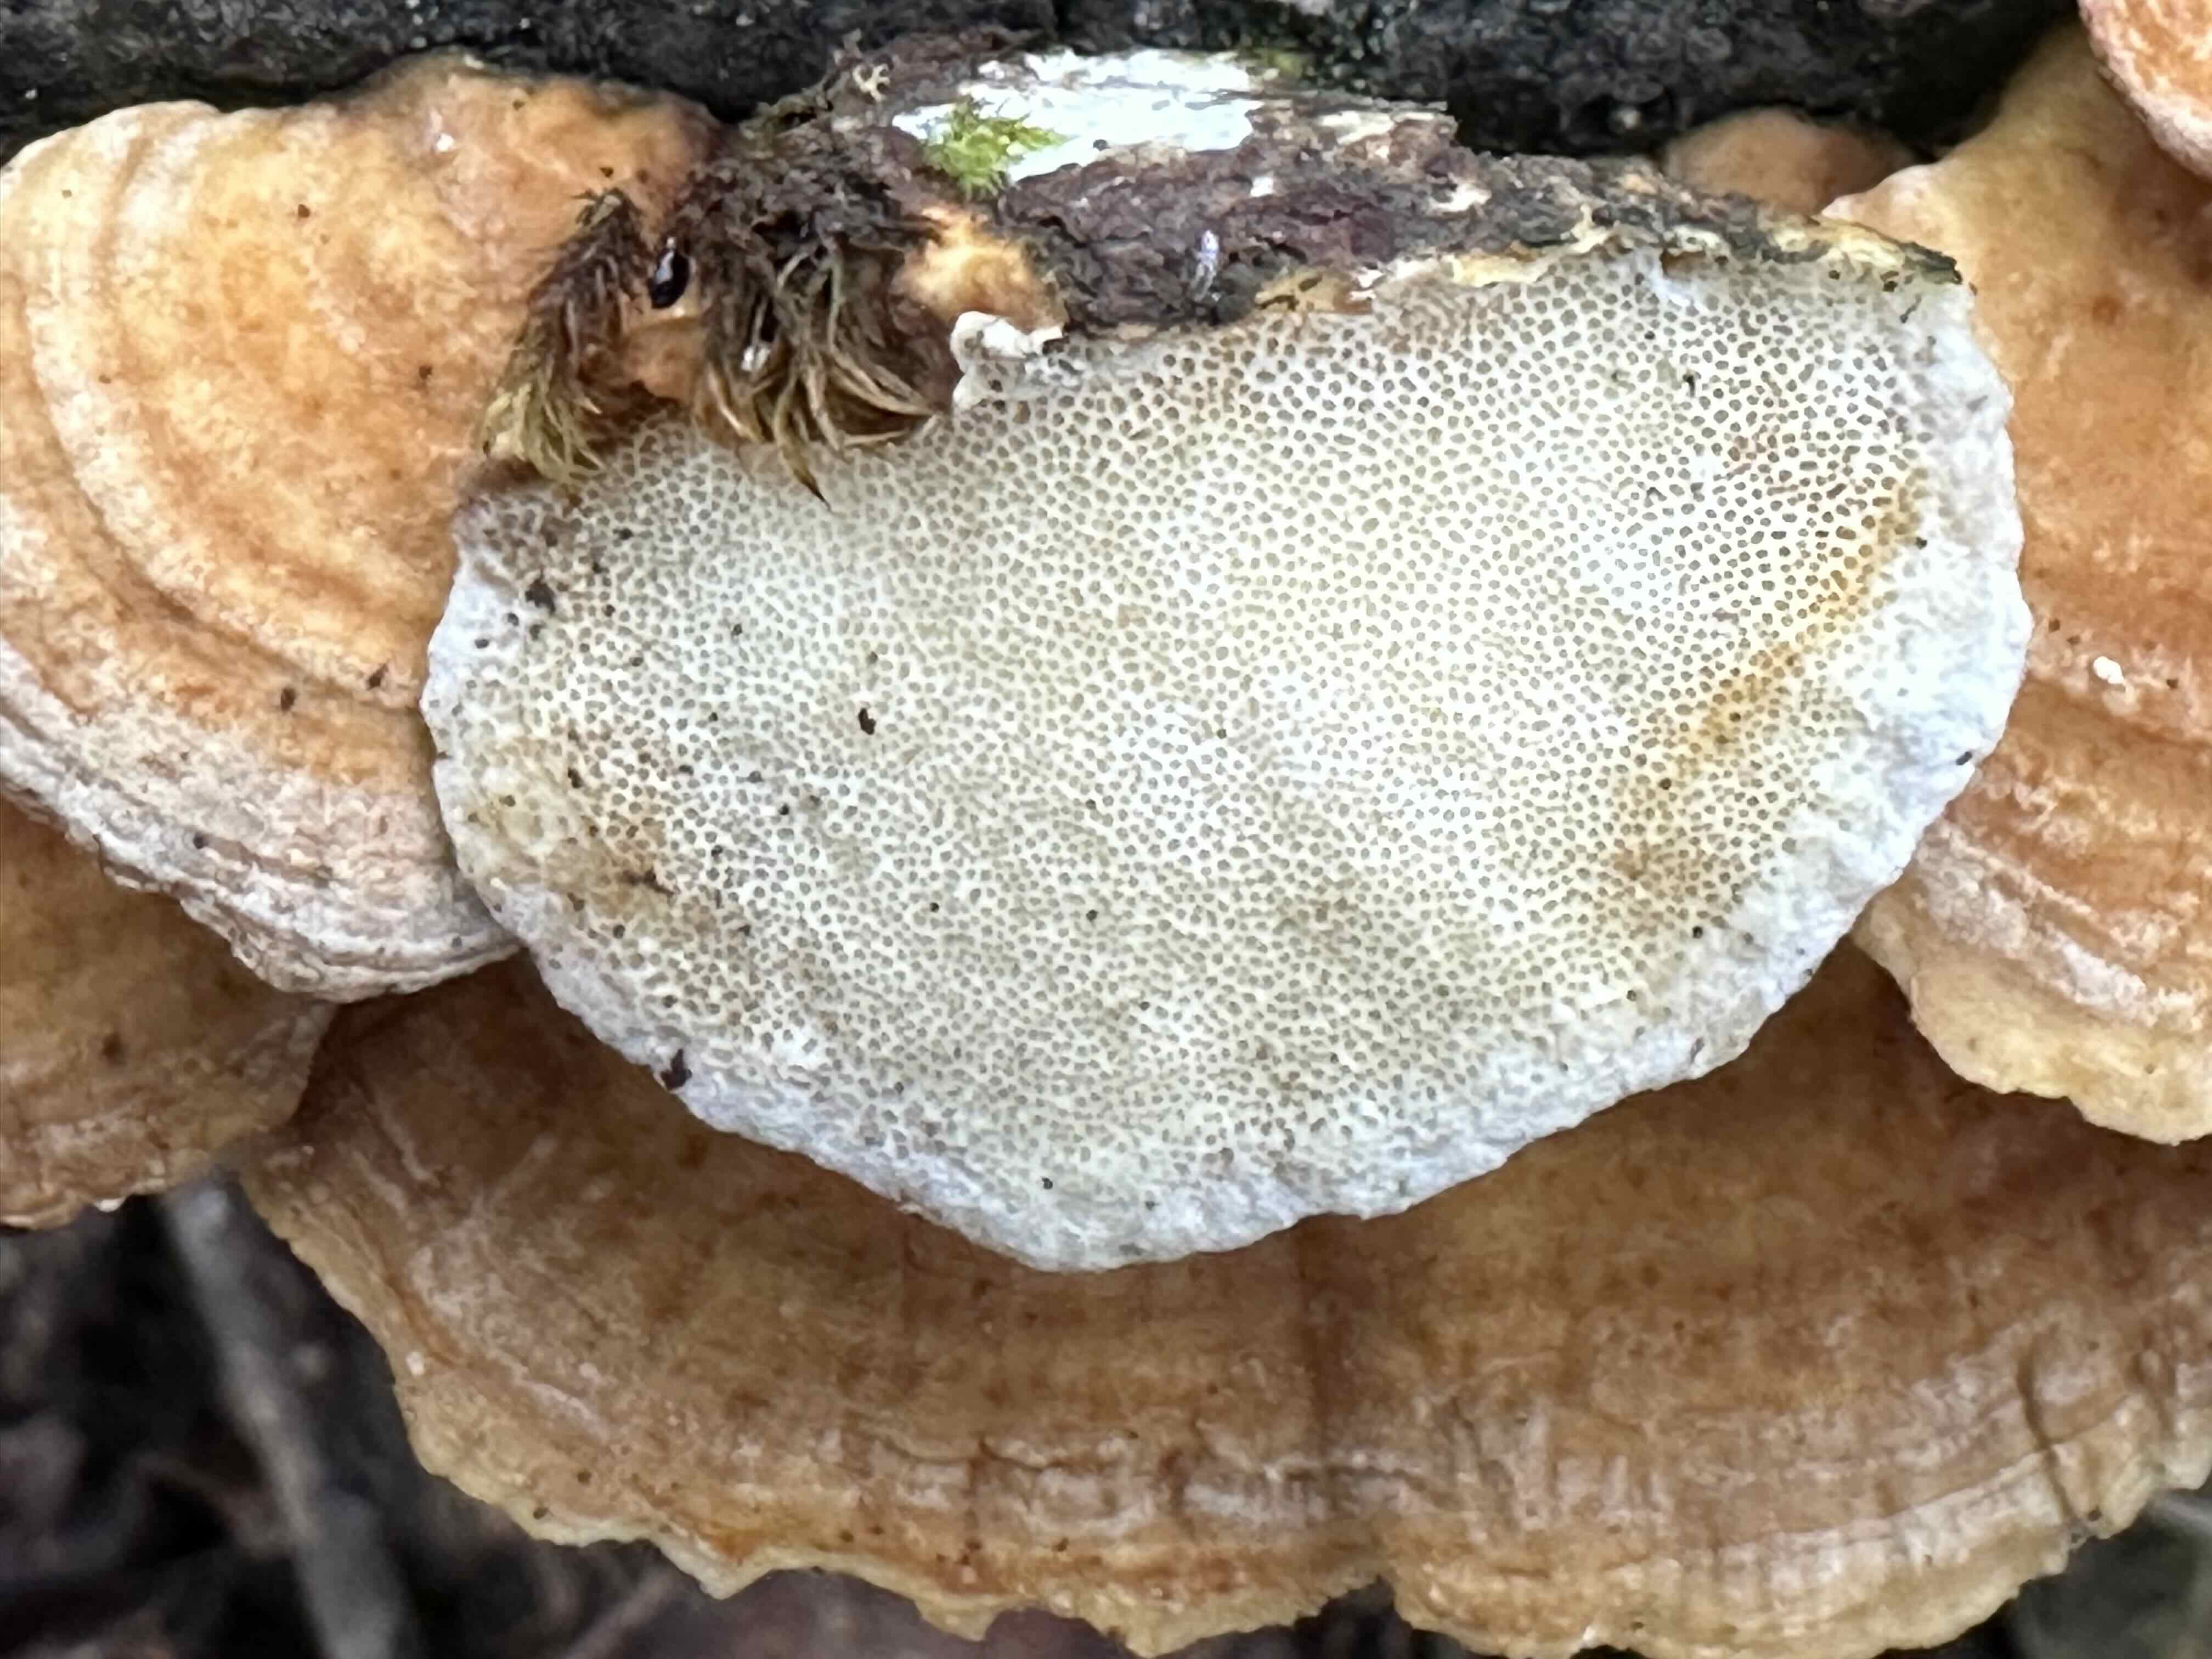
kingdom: Fungi
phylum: Basidiomycota
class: Agaricomycetes
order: Polyporales
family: Polyporaceae
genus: Trametes
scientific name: Trametes ochracea
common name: bæltet læderporesvamp
